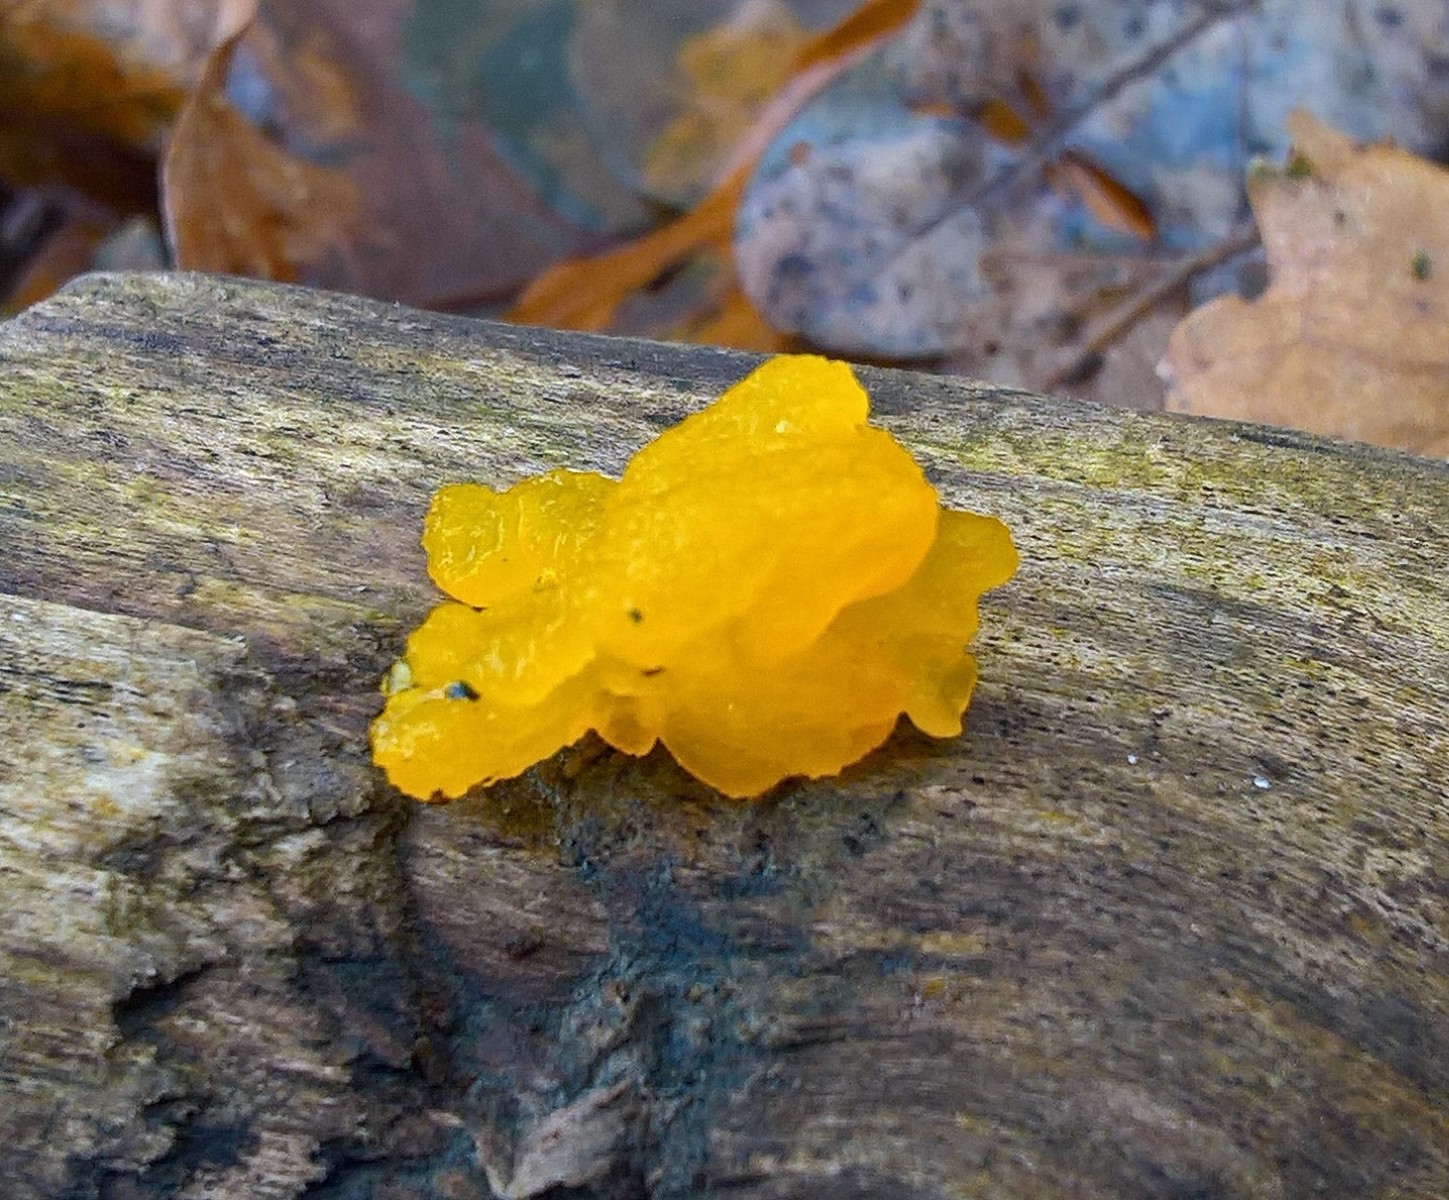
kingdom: Fungi
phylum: Basidiomycota
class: Tremellomycetes
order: Tremellales
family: Tremellaceae
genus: Tremella
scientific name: Tremella mesenterica
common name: gul bævresvamp
